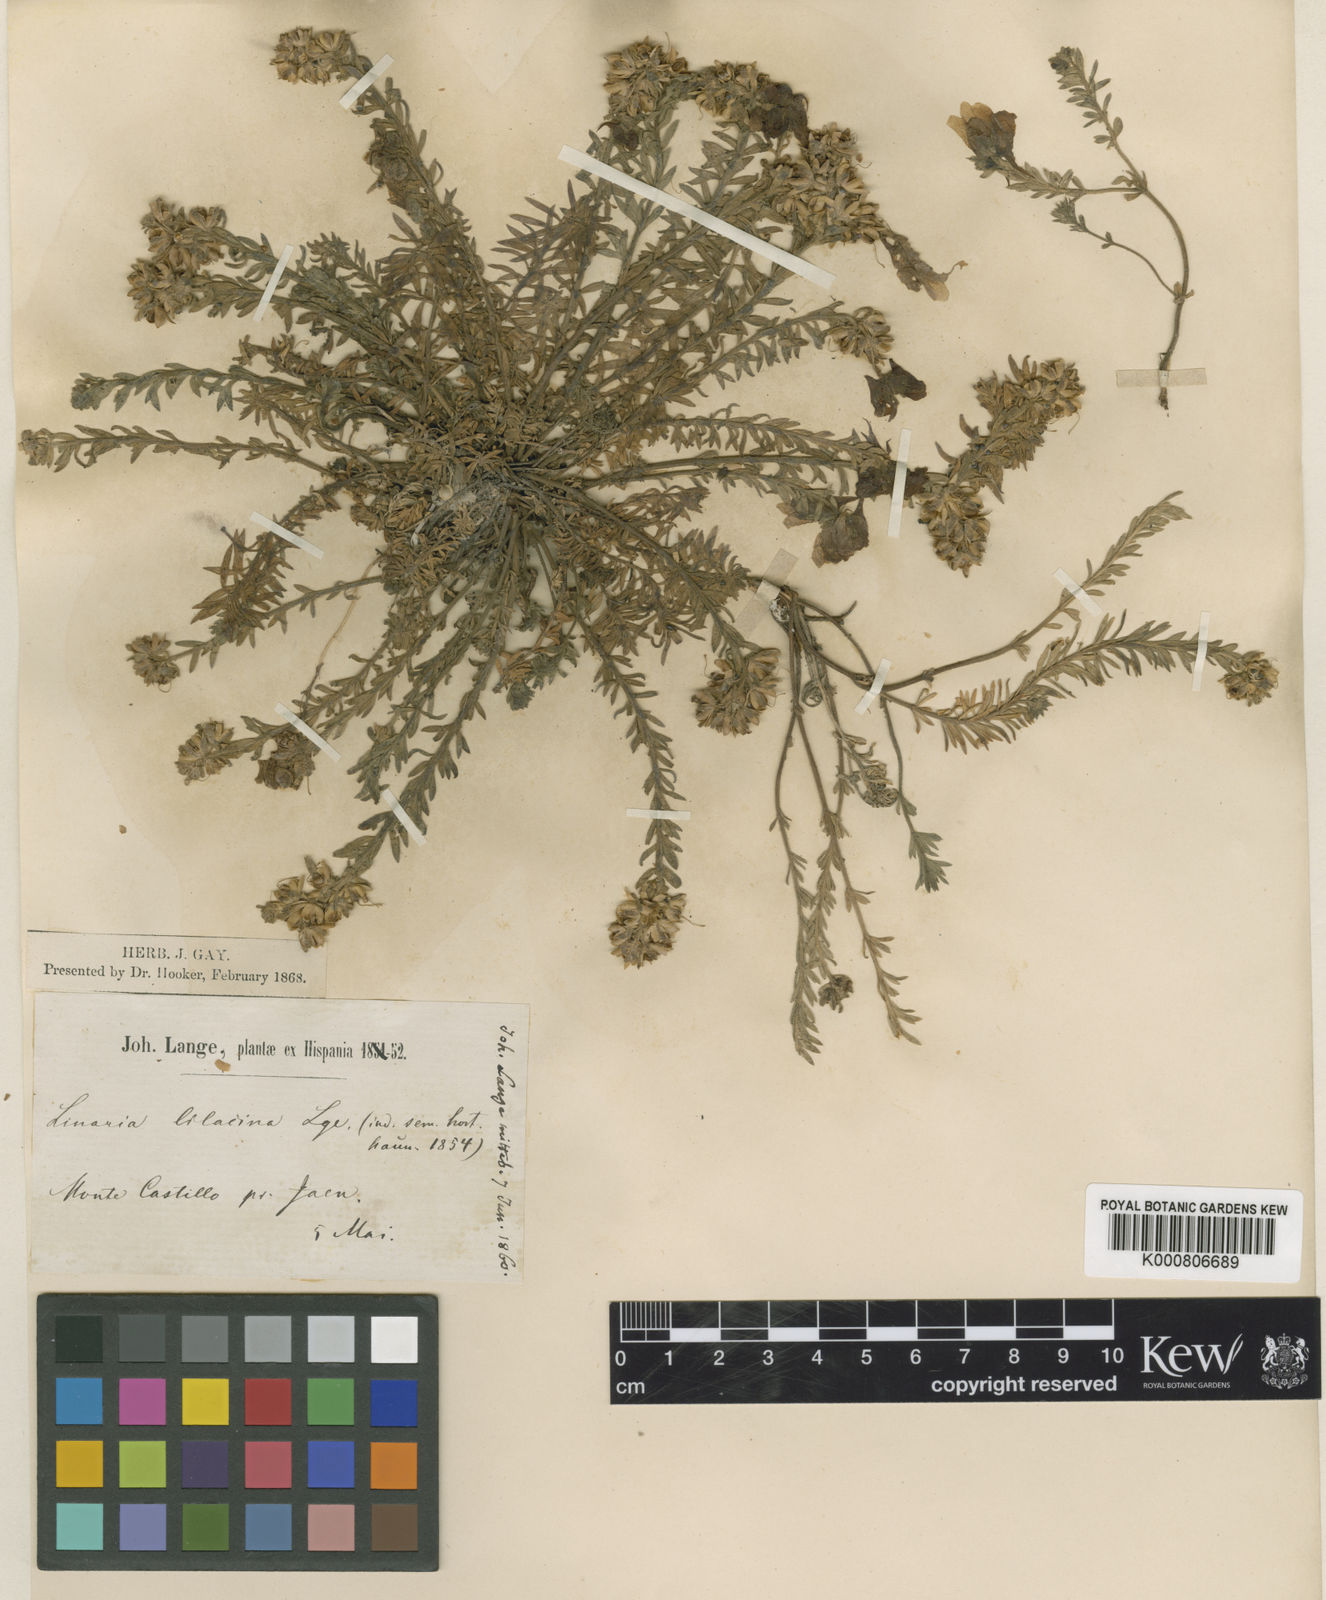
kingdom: Plantae
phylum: Tracheophyta
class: Magnoliopsida
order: Lamiales
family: Plantaginaceae
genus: Linaria
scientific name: Linaria verticillata
